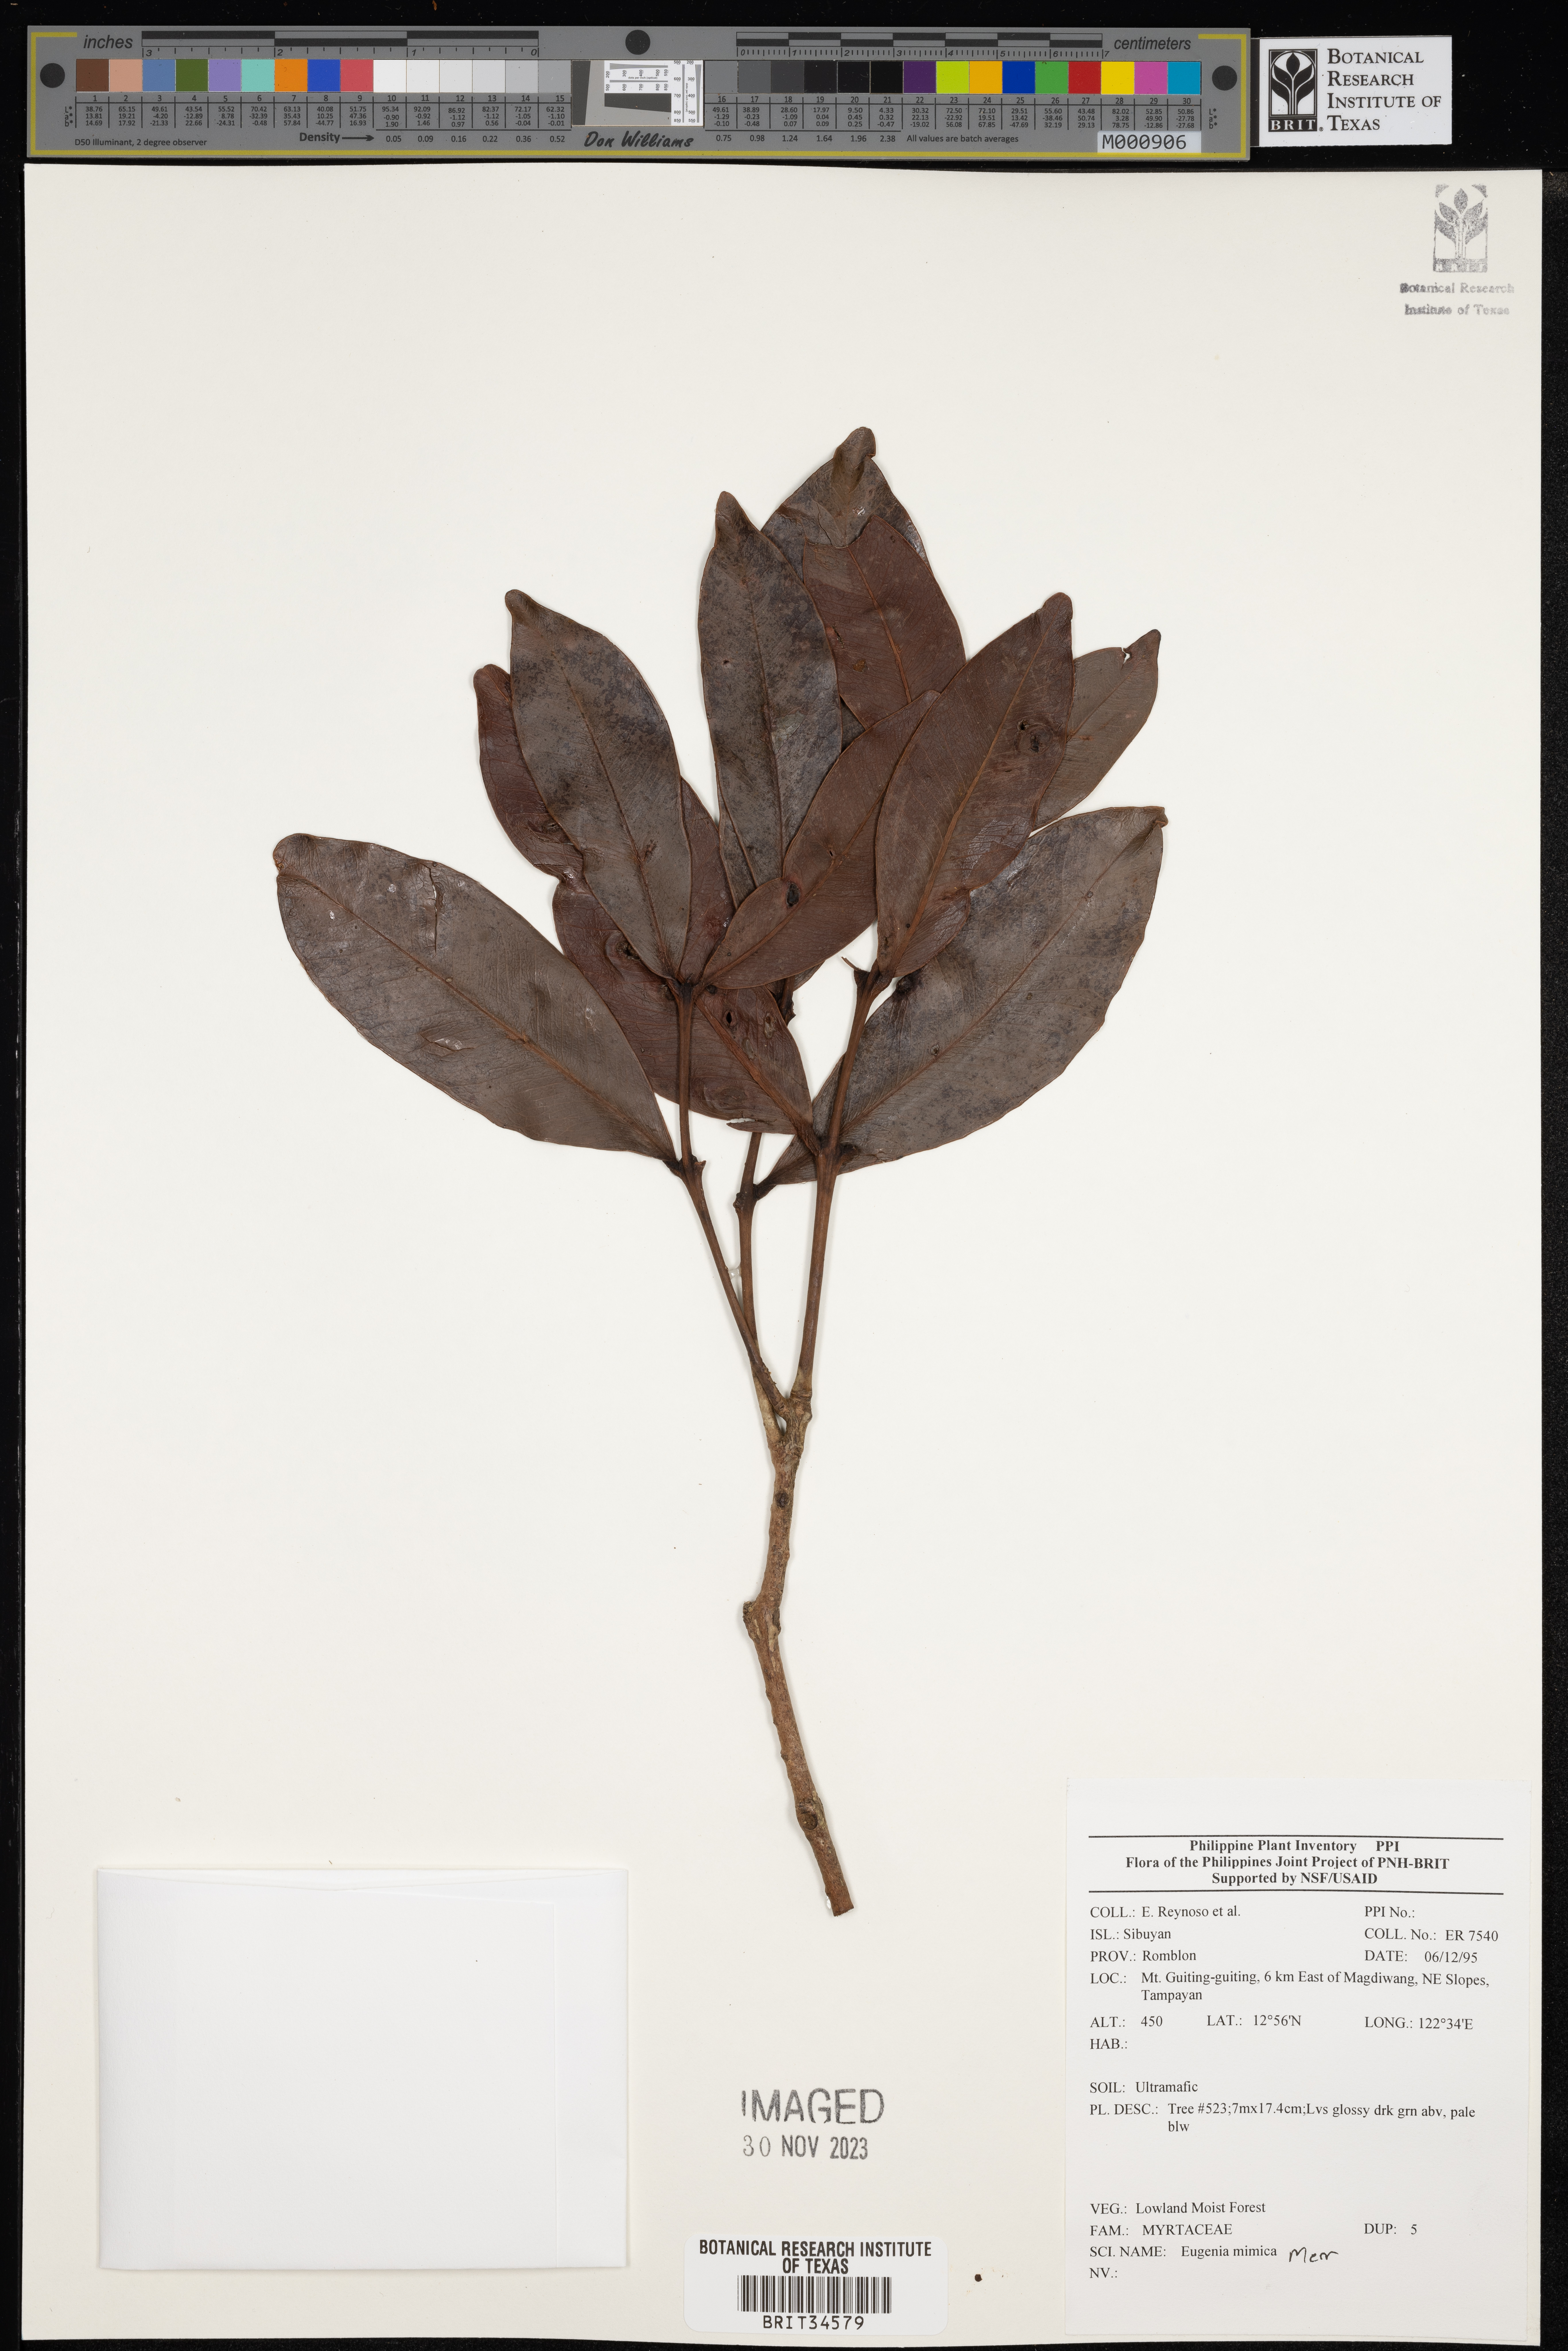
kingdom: Plantae
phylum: Tracheophyta
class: Magnoliopsida
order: Myrtales
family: Myrtaceae
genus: Eugenia
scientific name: Eugenia
